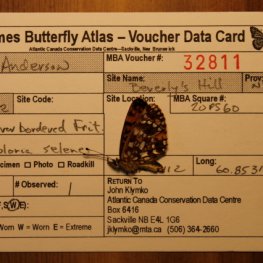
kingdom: Animalia
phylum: Arthropoda
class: Insecta
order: Lepidoptera
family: Nymphalidae
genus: Boloria
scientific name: Boloria selene
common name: Silver-bordered Fritillary
